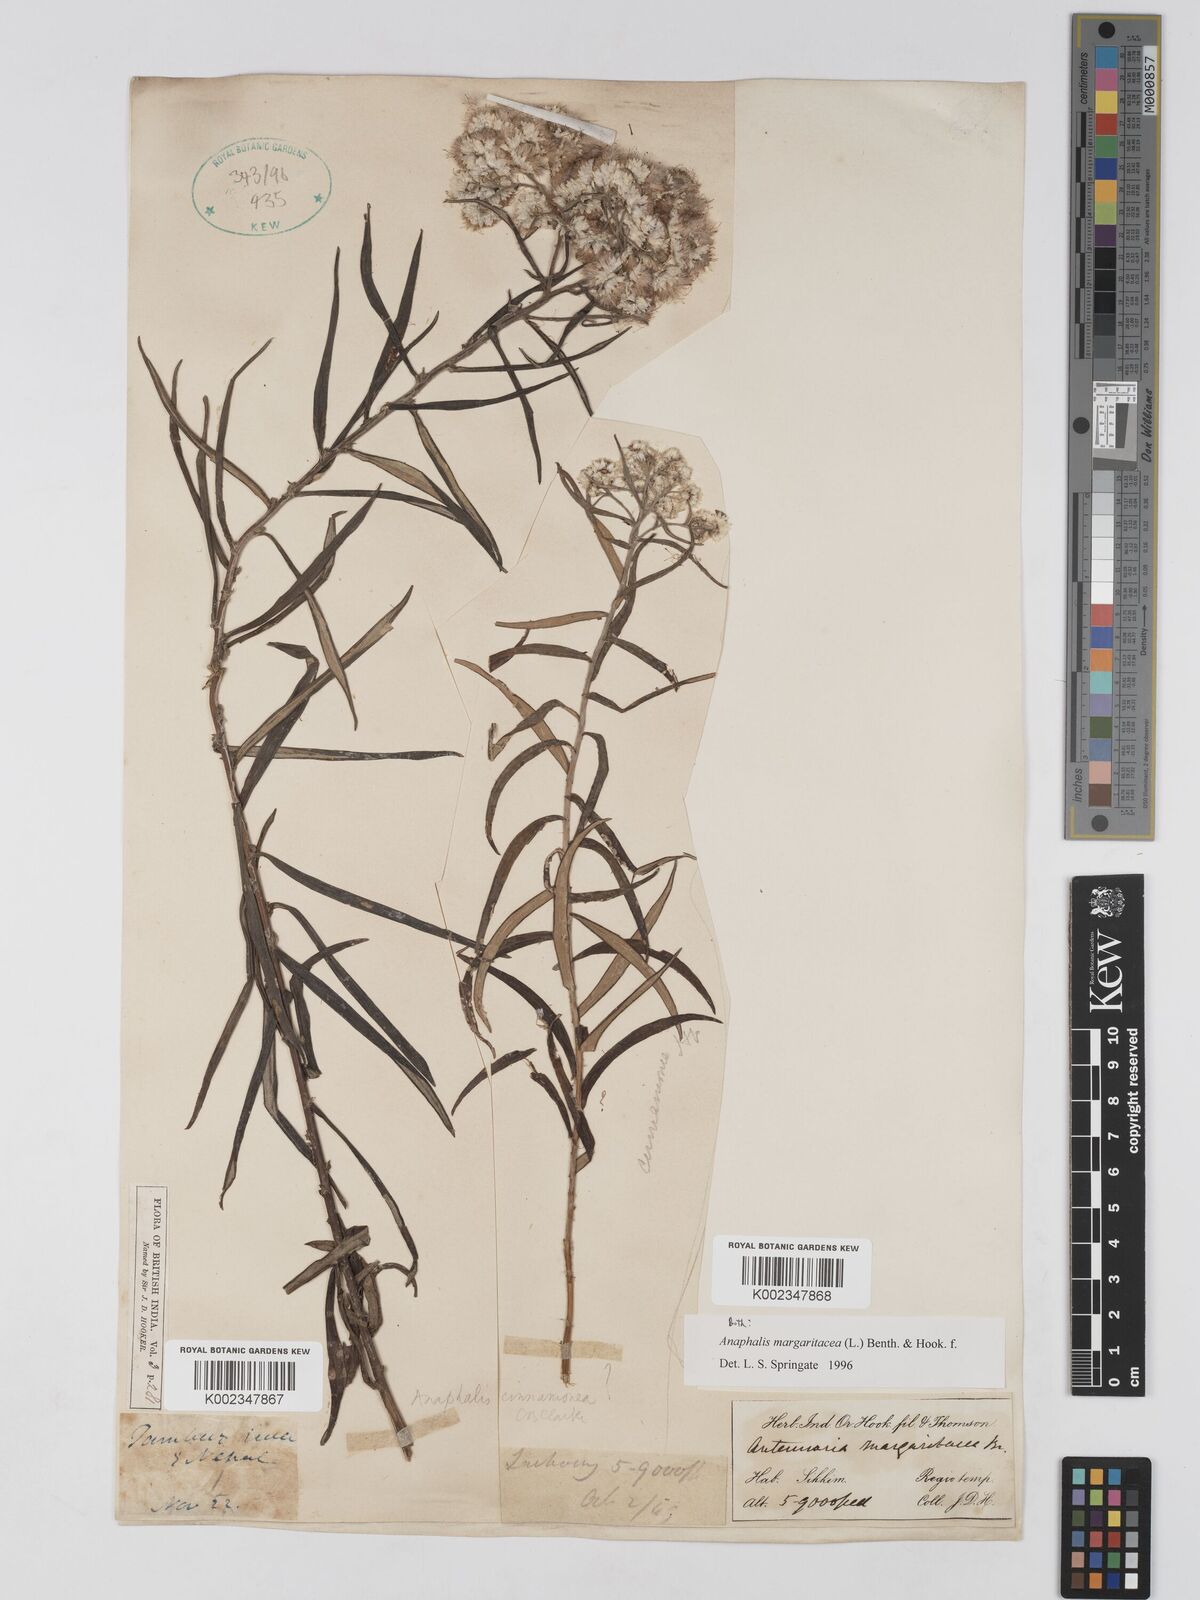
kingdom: Plantae
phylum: Tracheophyta
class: Magnoliopsida
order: Asterales
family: Asteraceae
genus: Anaphalis
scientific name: Anaphalis margaritacea
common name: Pearly everlasting
